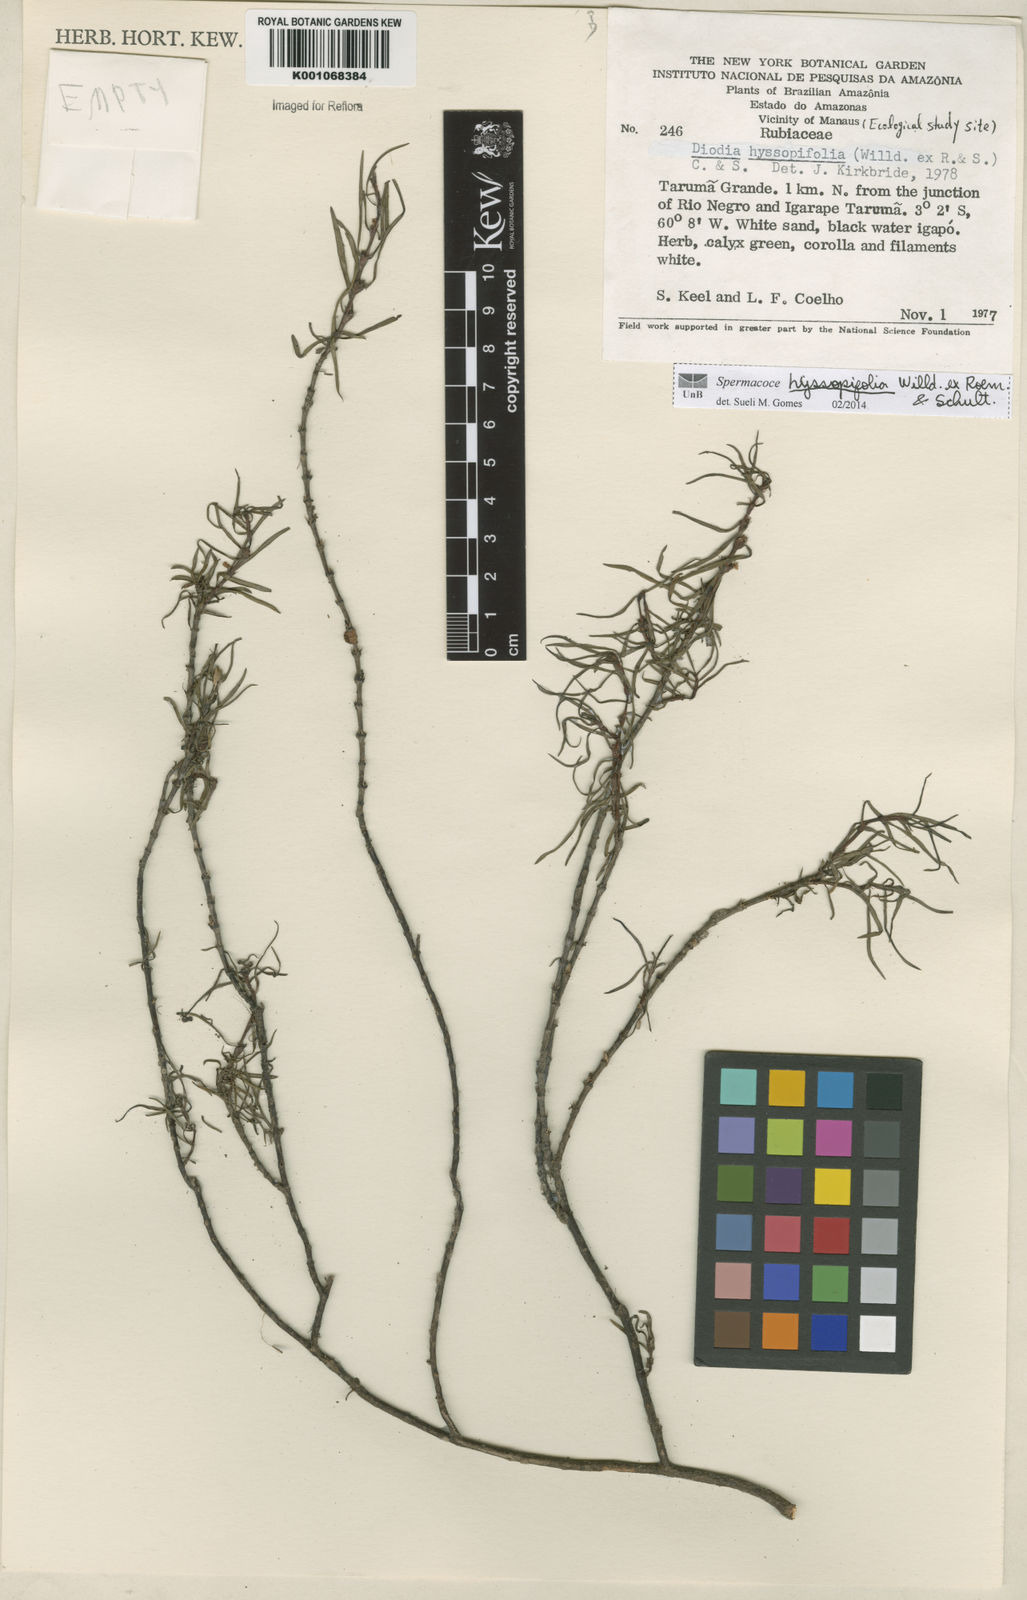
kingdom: Plantae
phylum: Tracheophyta
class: Magnoliopsida
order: Gentianales
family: Rubiaceae
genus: Spermacoce
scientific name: Spermacoce
